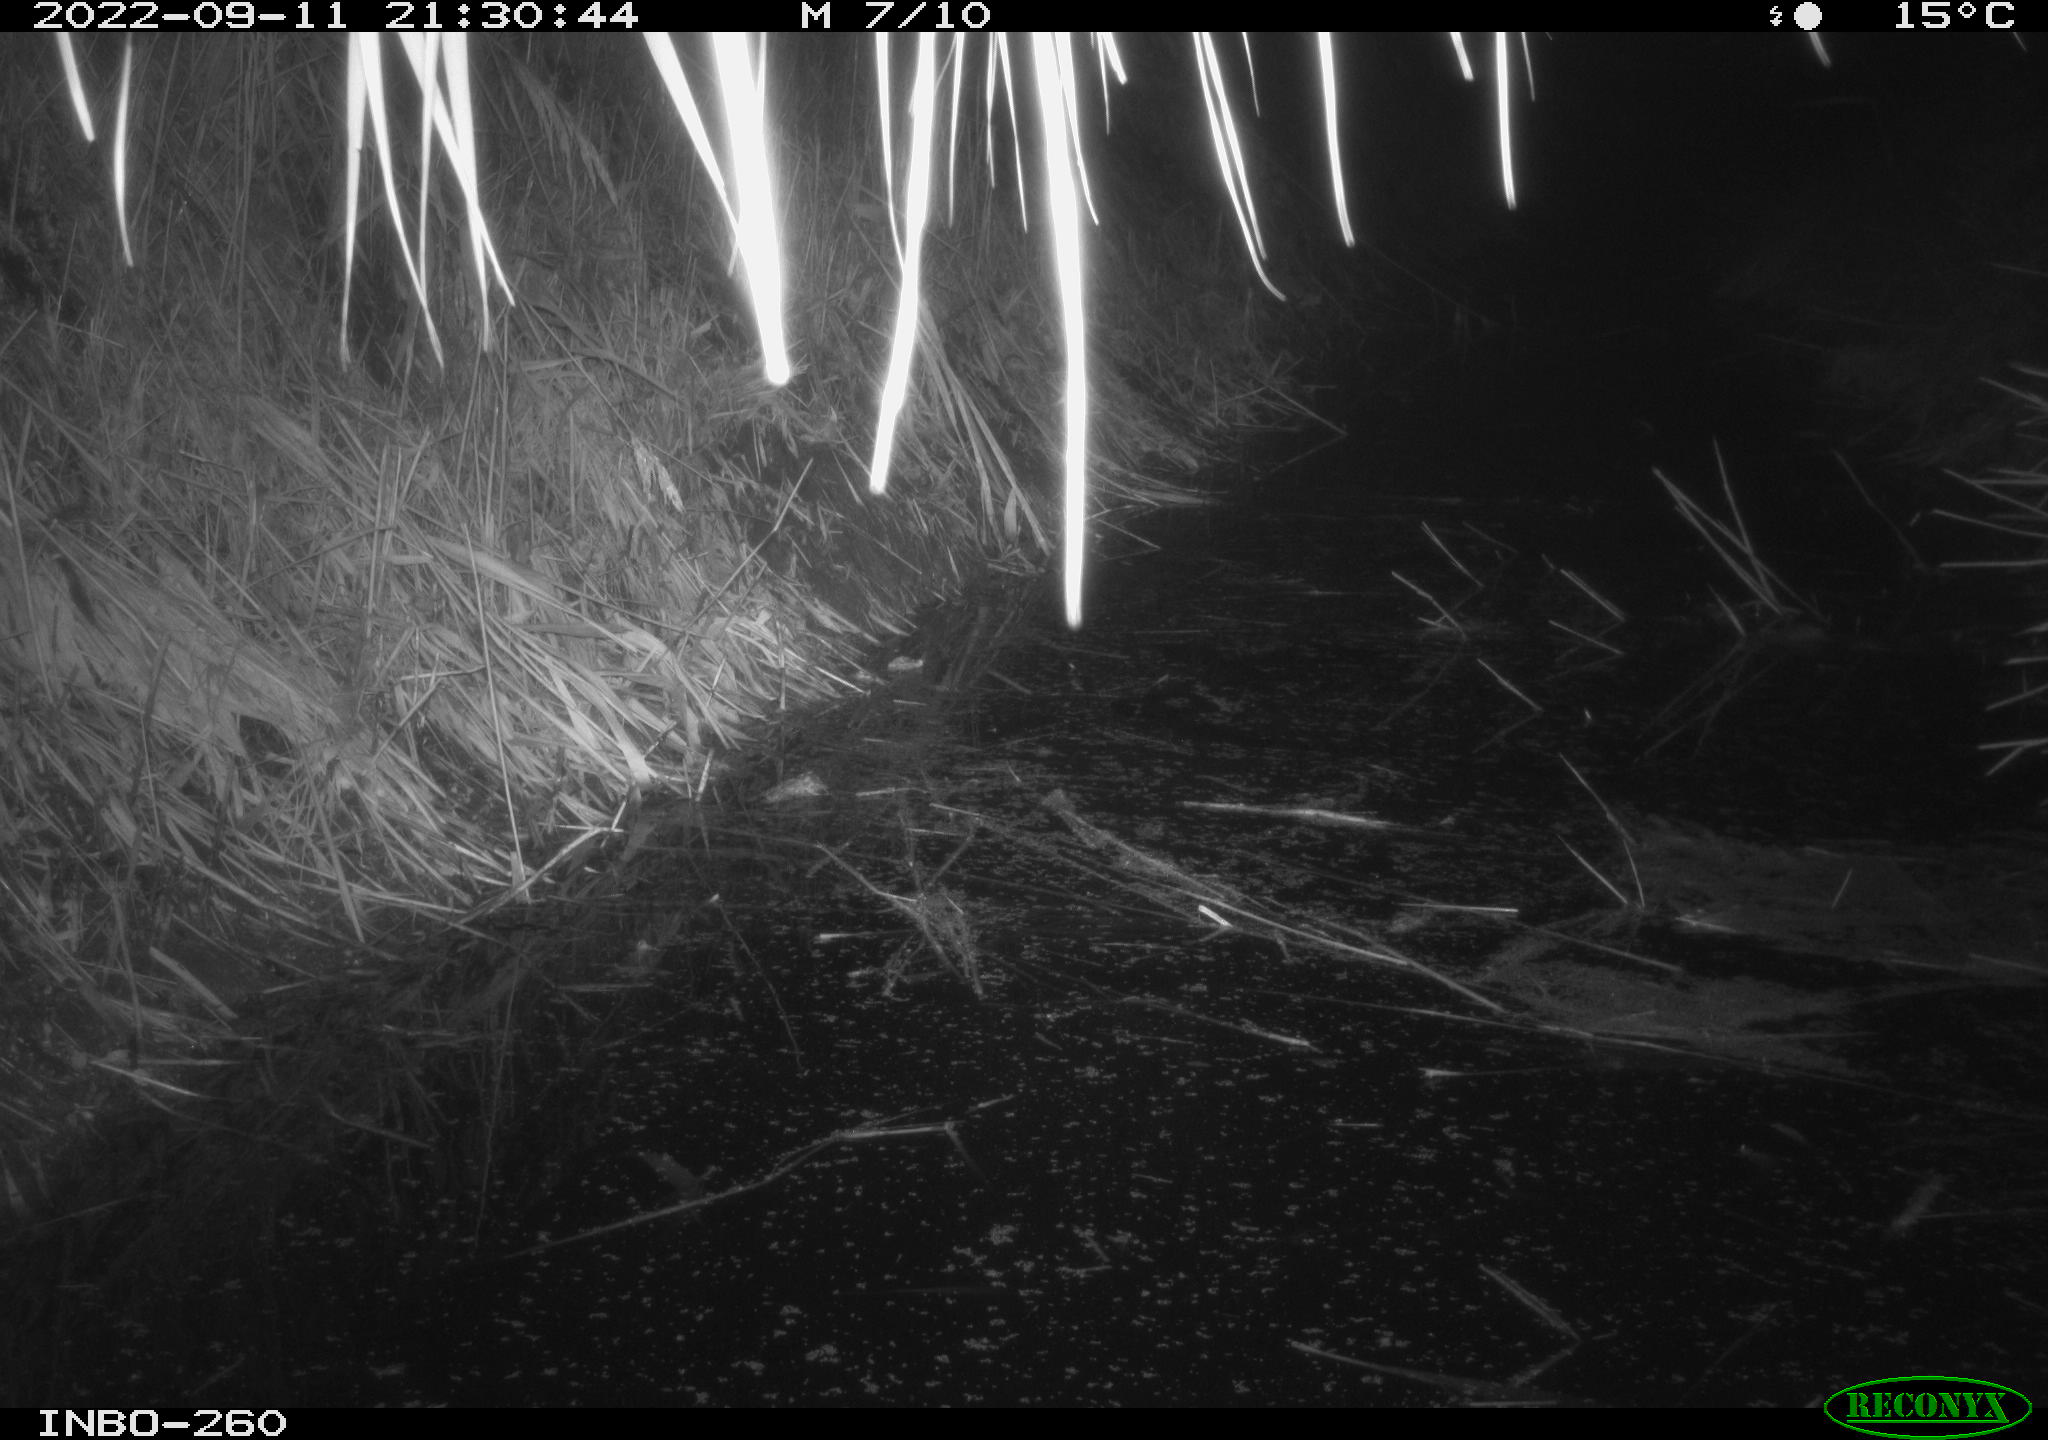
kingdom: Animalia
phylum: Chordata
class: Mammalia
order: Rodentia
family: Muridae
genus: Rattus
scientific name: Rattus norvegicus
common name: Brown rat
